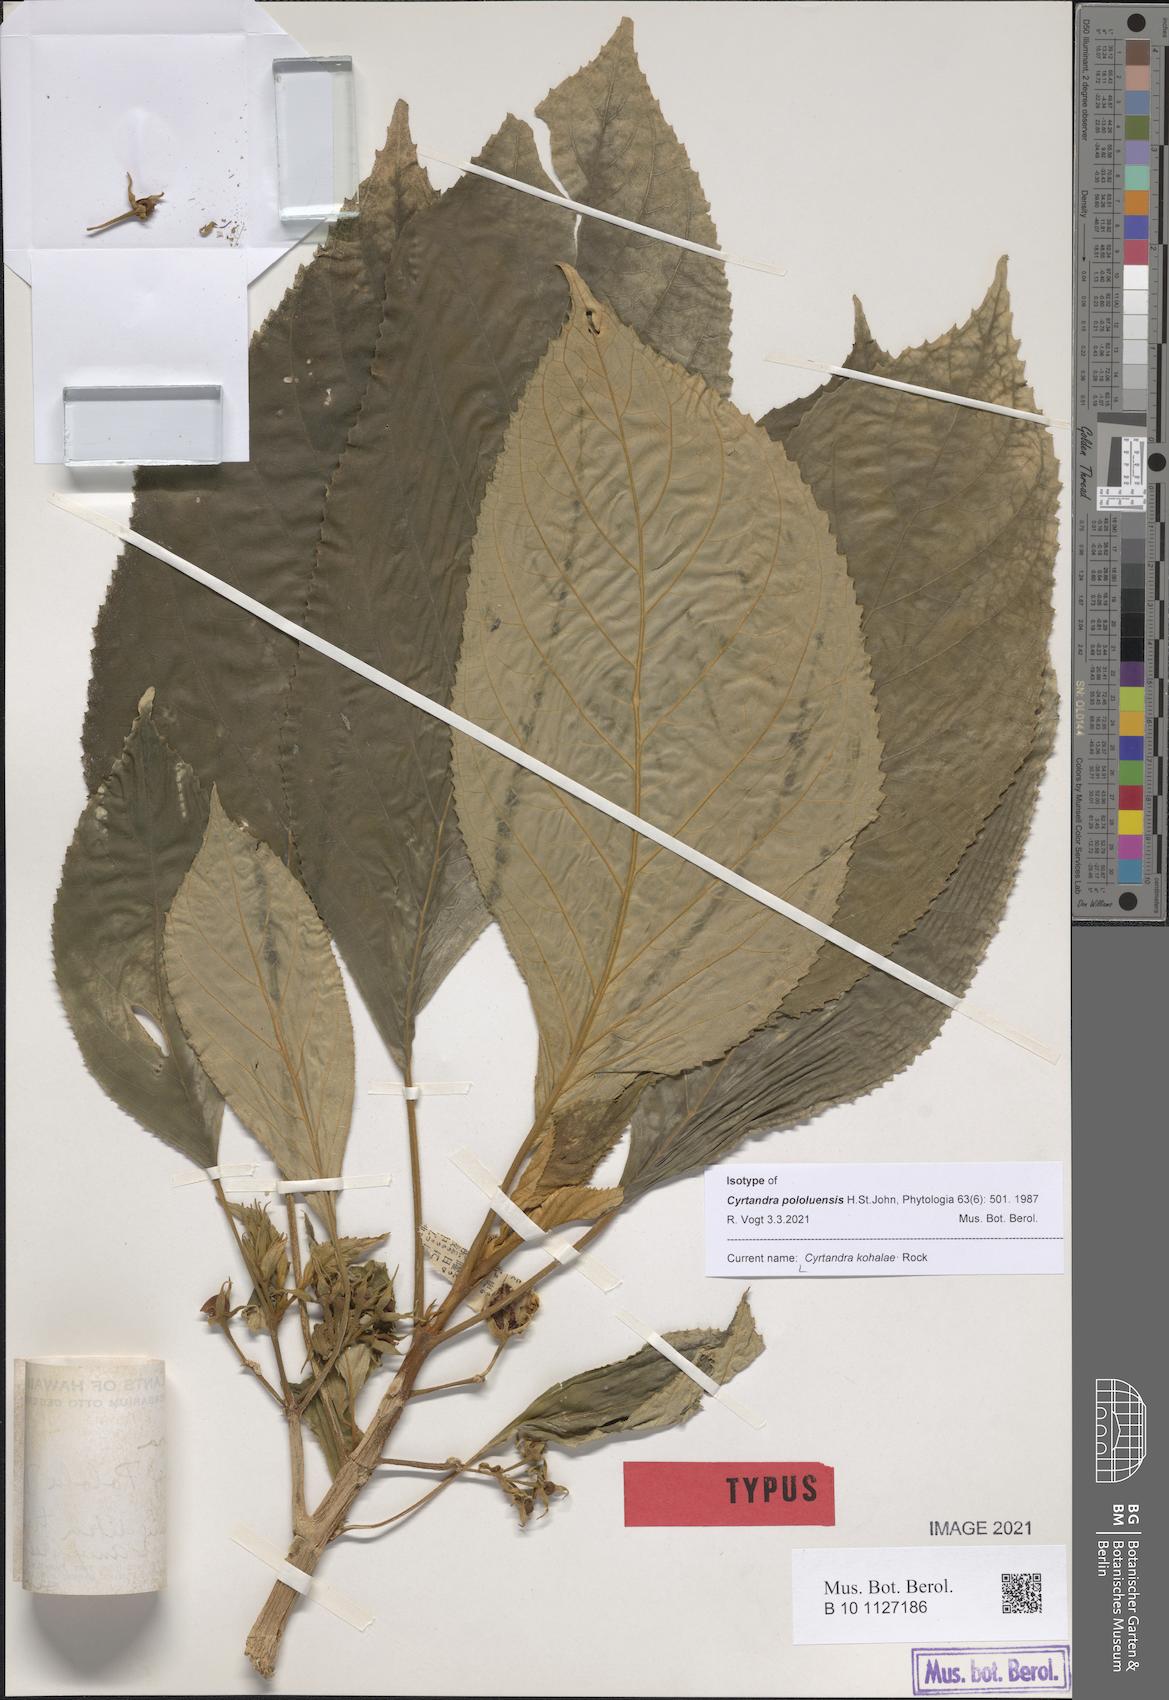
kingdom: Plantae
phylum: Tracheophyta
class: Magnoliopsida
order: Lamiales
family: Gesneriaceae
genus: Cyrtandra
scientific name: Cyrtandra kohalae
